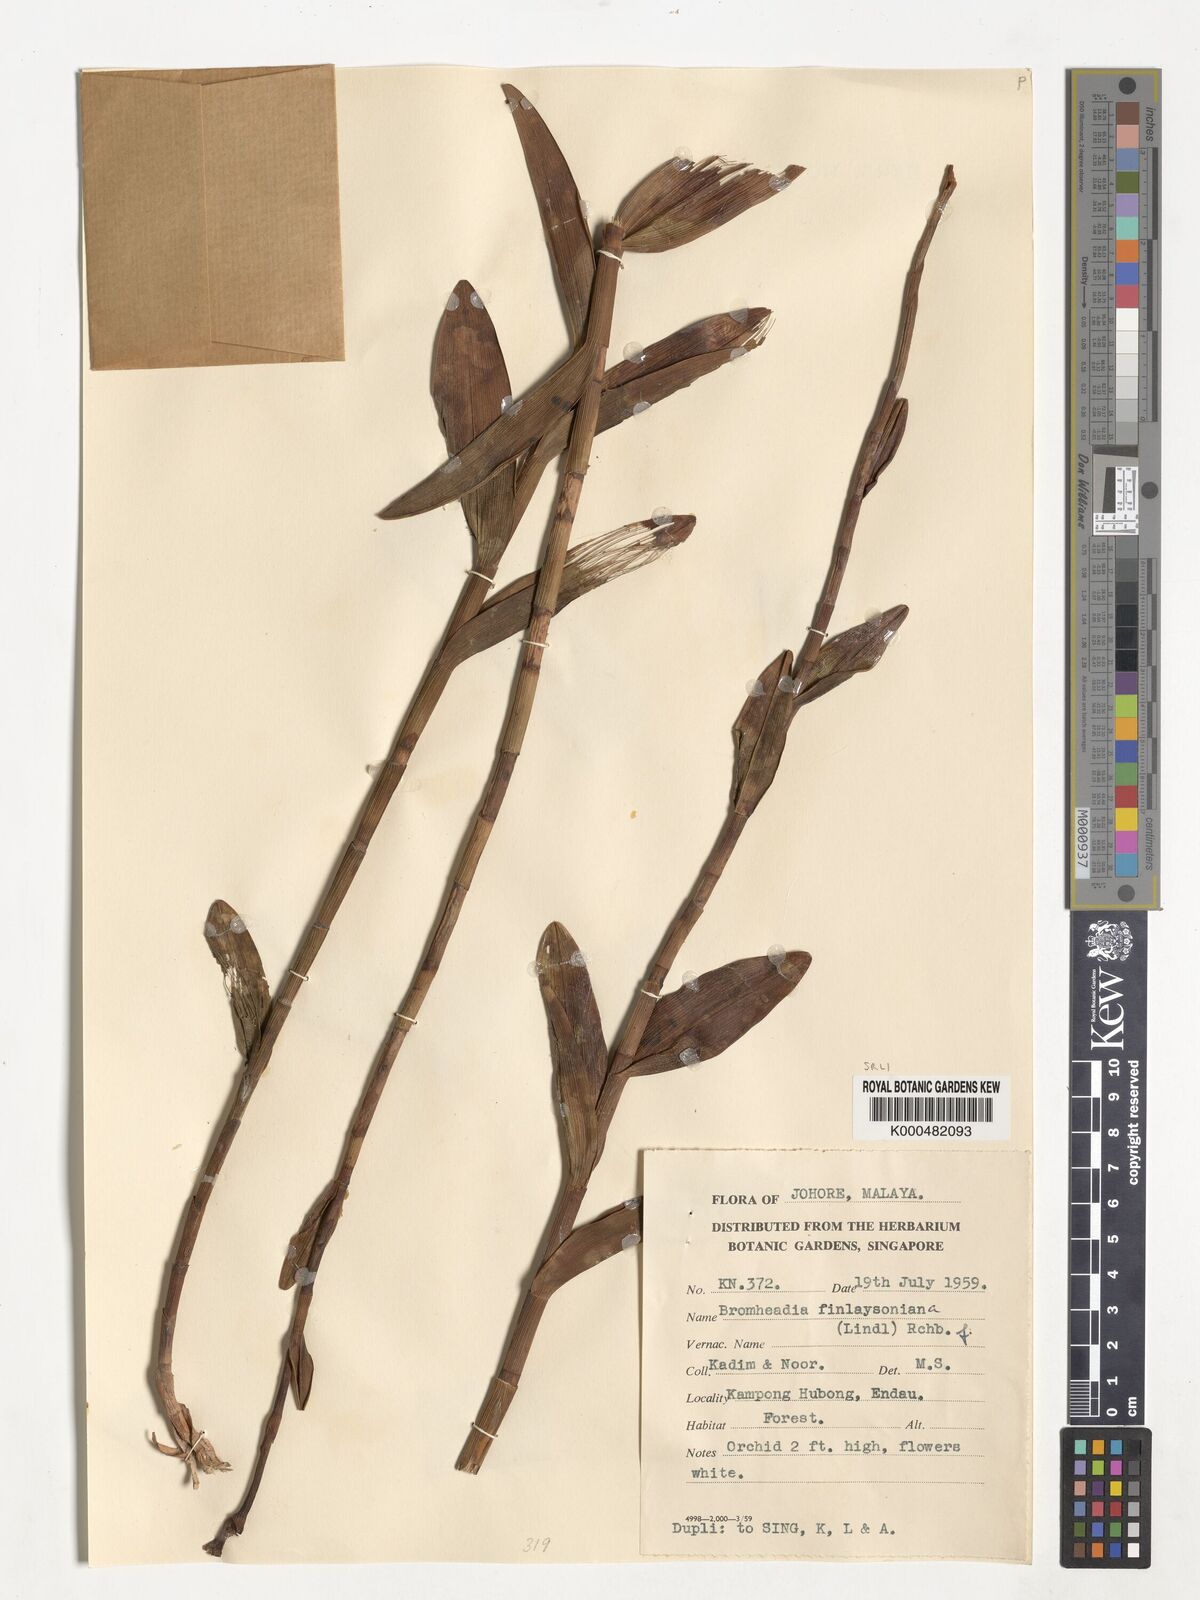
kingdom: Plantae
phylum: Tracheophyta
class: Liliopsida
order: Asparagales
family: Orchidaceae
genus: Bromheadia
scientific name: Bromheadia finlaysoniana
